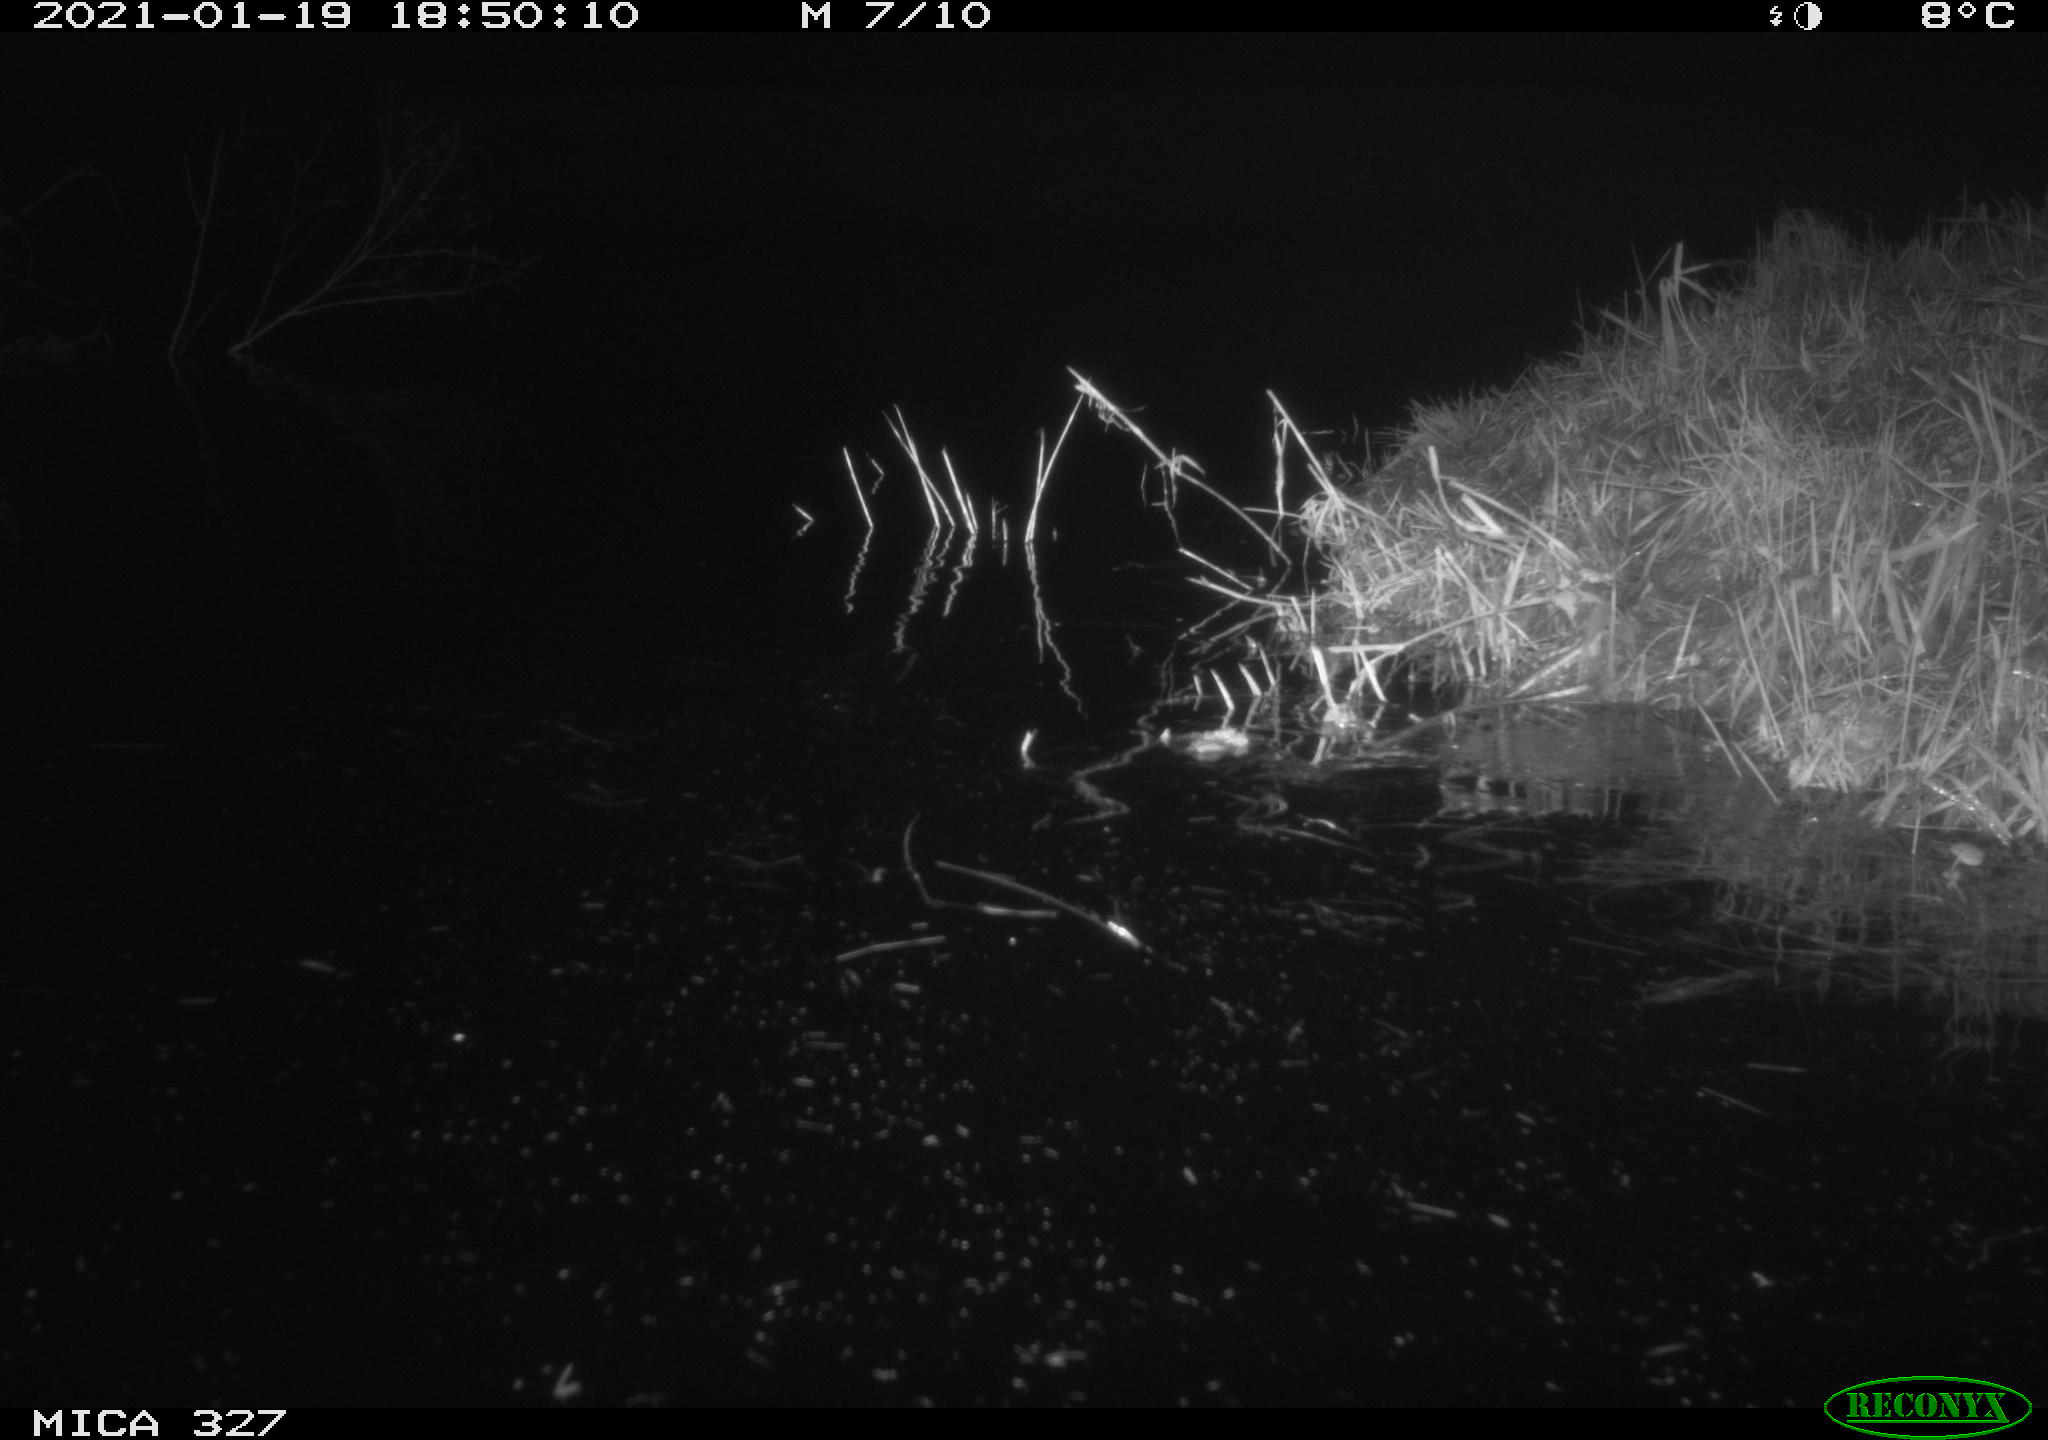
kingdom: Animalia
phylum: Chordata
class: Mammalia
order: Rodentia
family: Cricetidae
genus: Ondatra
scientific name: Ondatra zibethicus
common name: Muskrat
